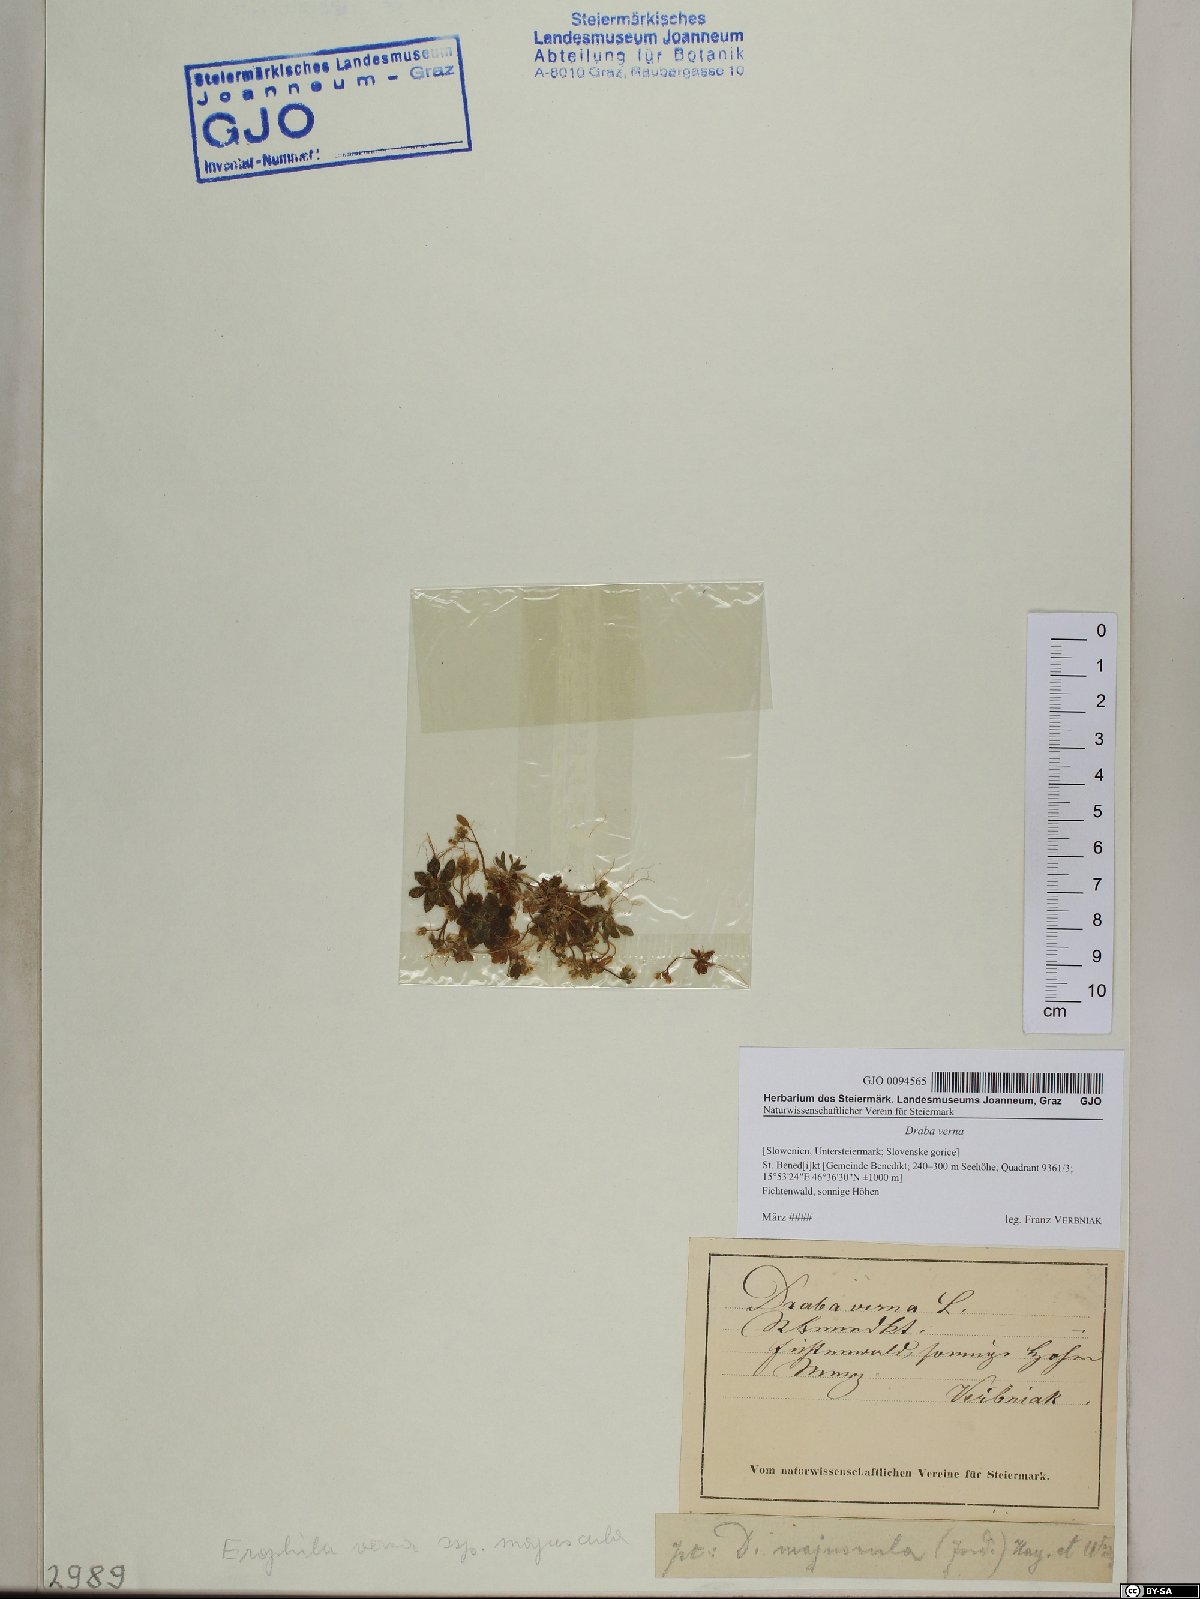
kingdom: Plantae
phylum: Tracheophyta
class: Magnoliopsida
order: Brassicales
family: Brassicaceae
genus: Draba
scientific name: Draba verna
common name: Spring draba
